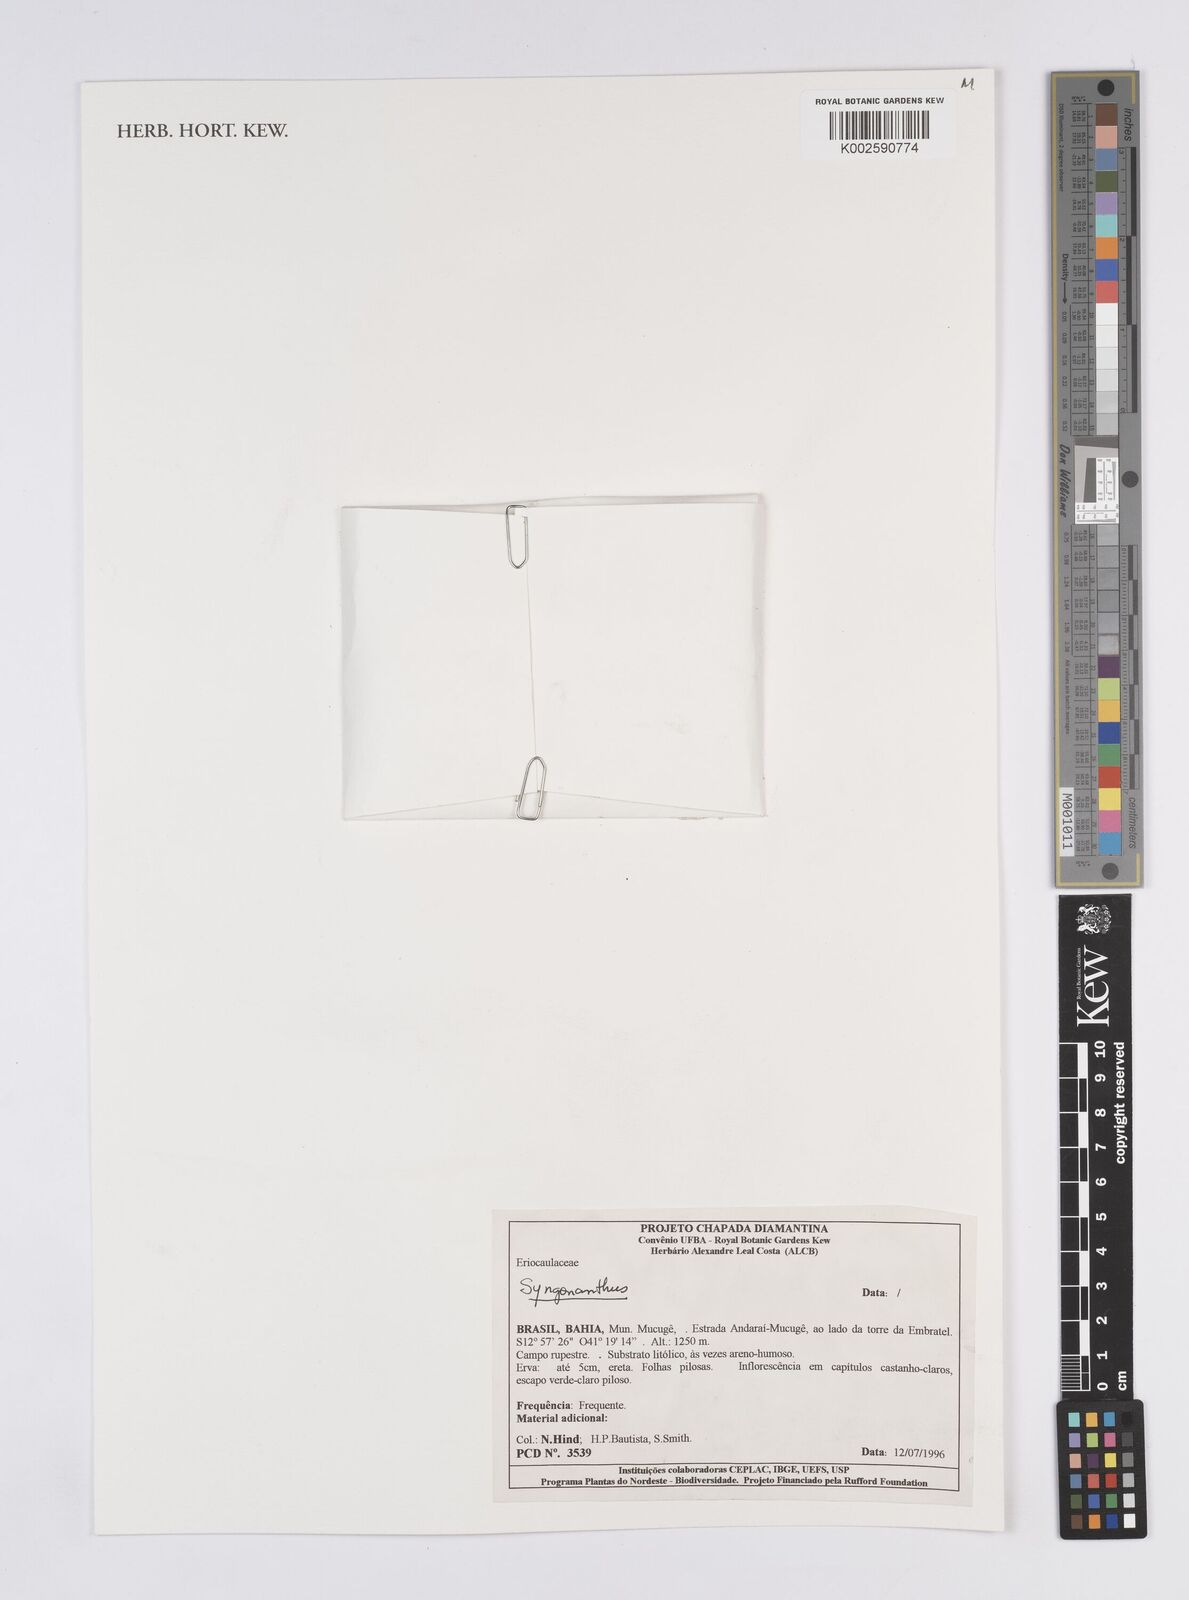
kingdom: Plantae
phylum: Tracheophyta
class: Liliopsida
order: Poales
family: Eriocaulaceae
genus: Leiothrix
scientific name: Leiothrix
